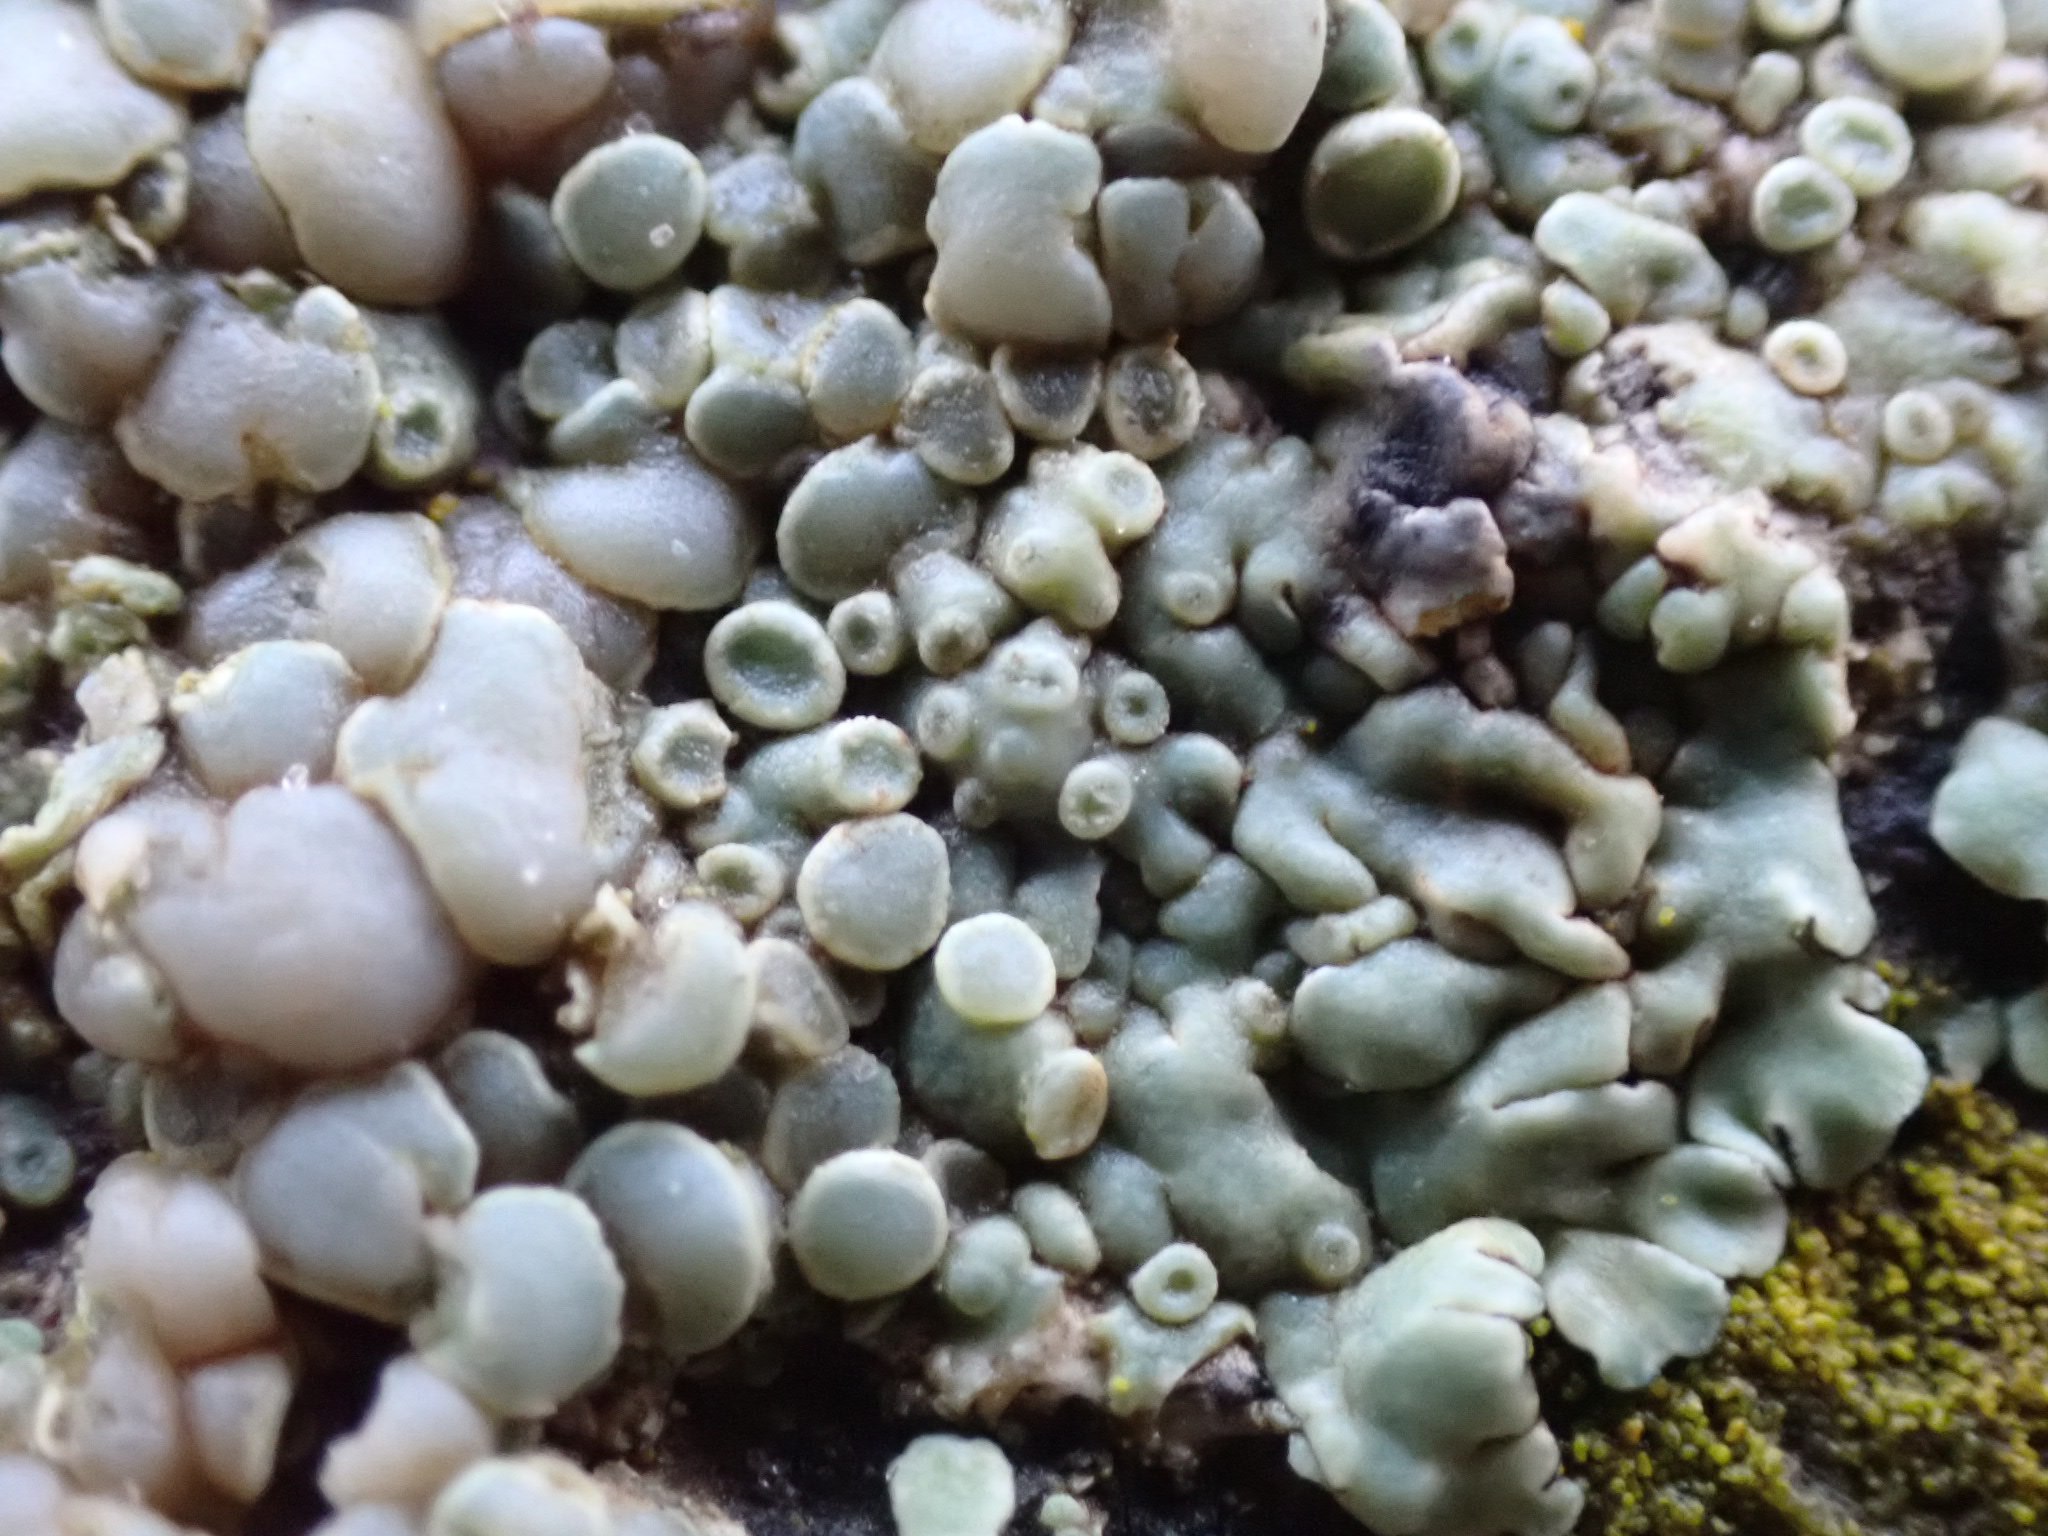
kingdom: Fungi
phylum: Ascomycota
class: Lecanoromycetes
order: Lecanorales
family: Lecanoraceae
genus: Protoparmeliopsis
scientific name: Protoparmeliopsis muralis
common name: randfliget kantskivelav
